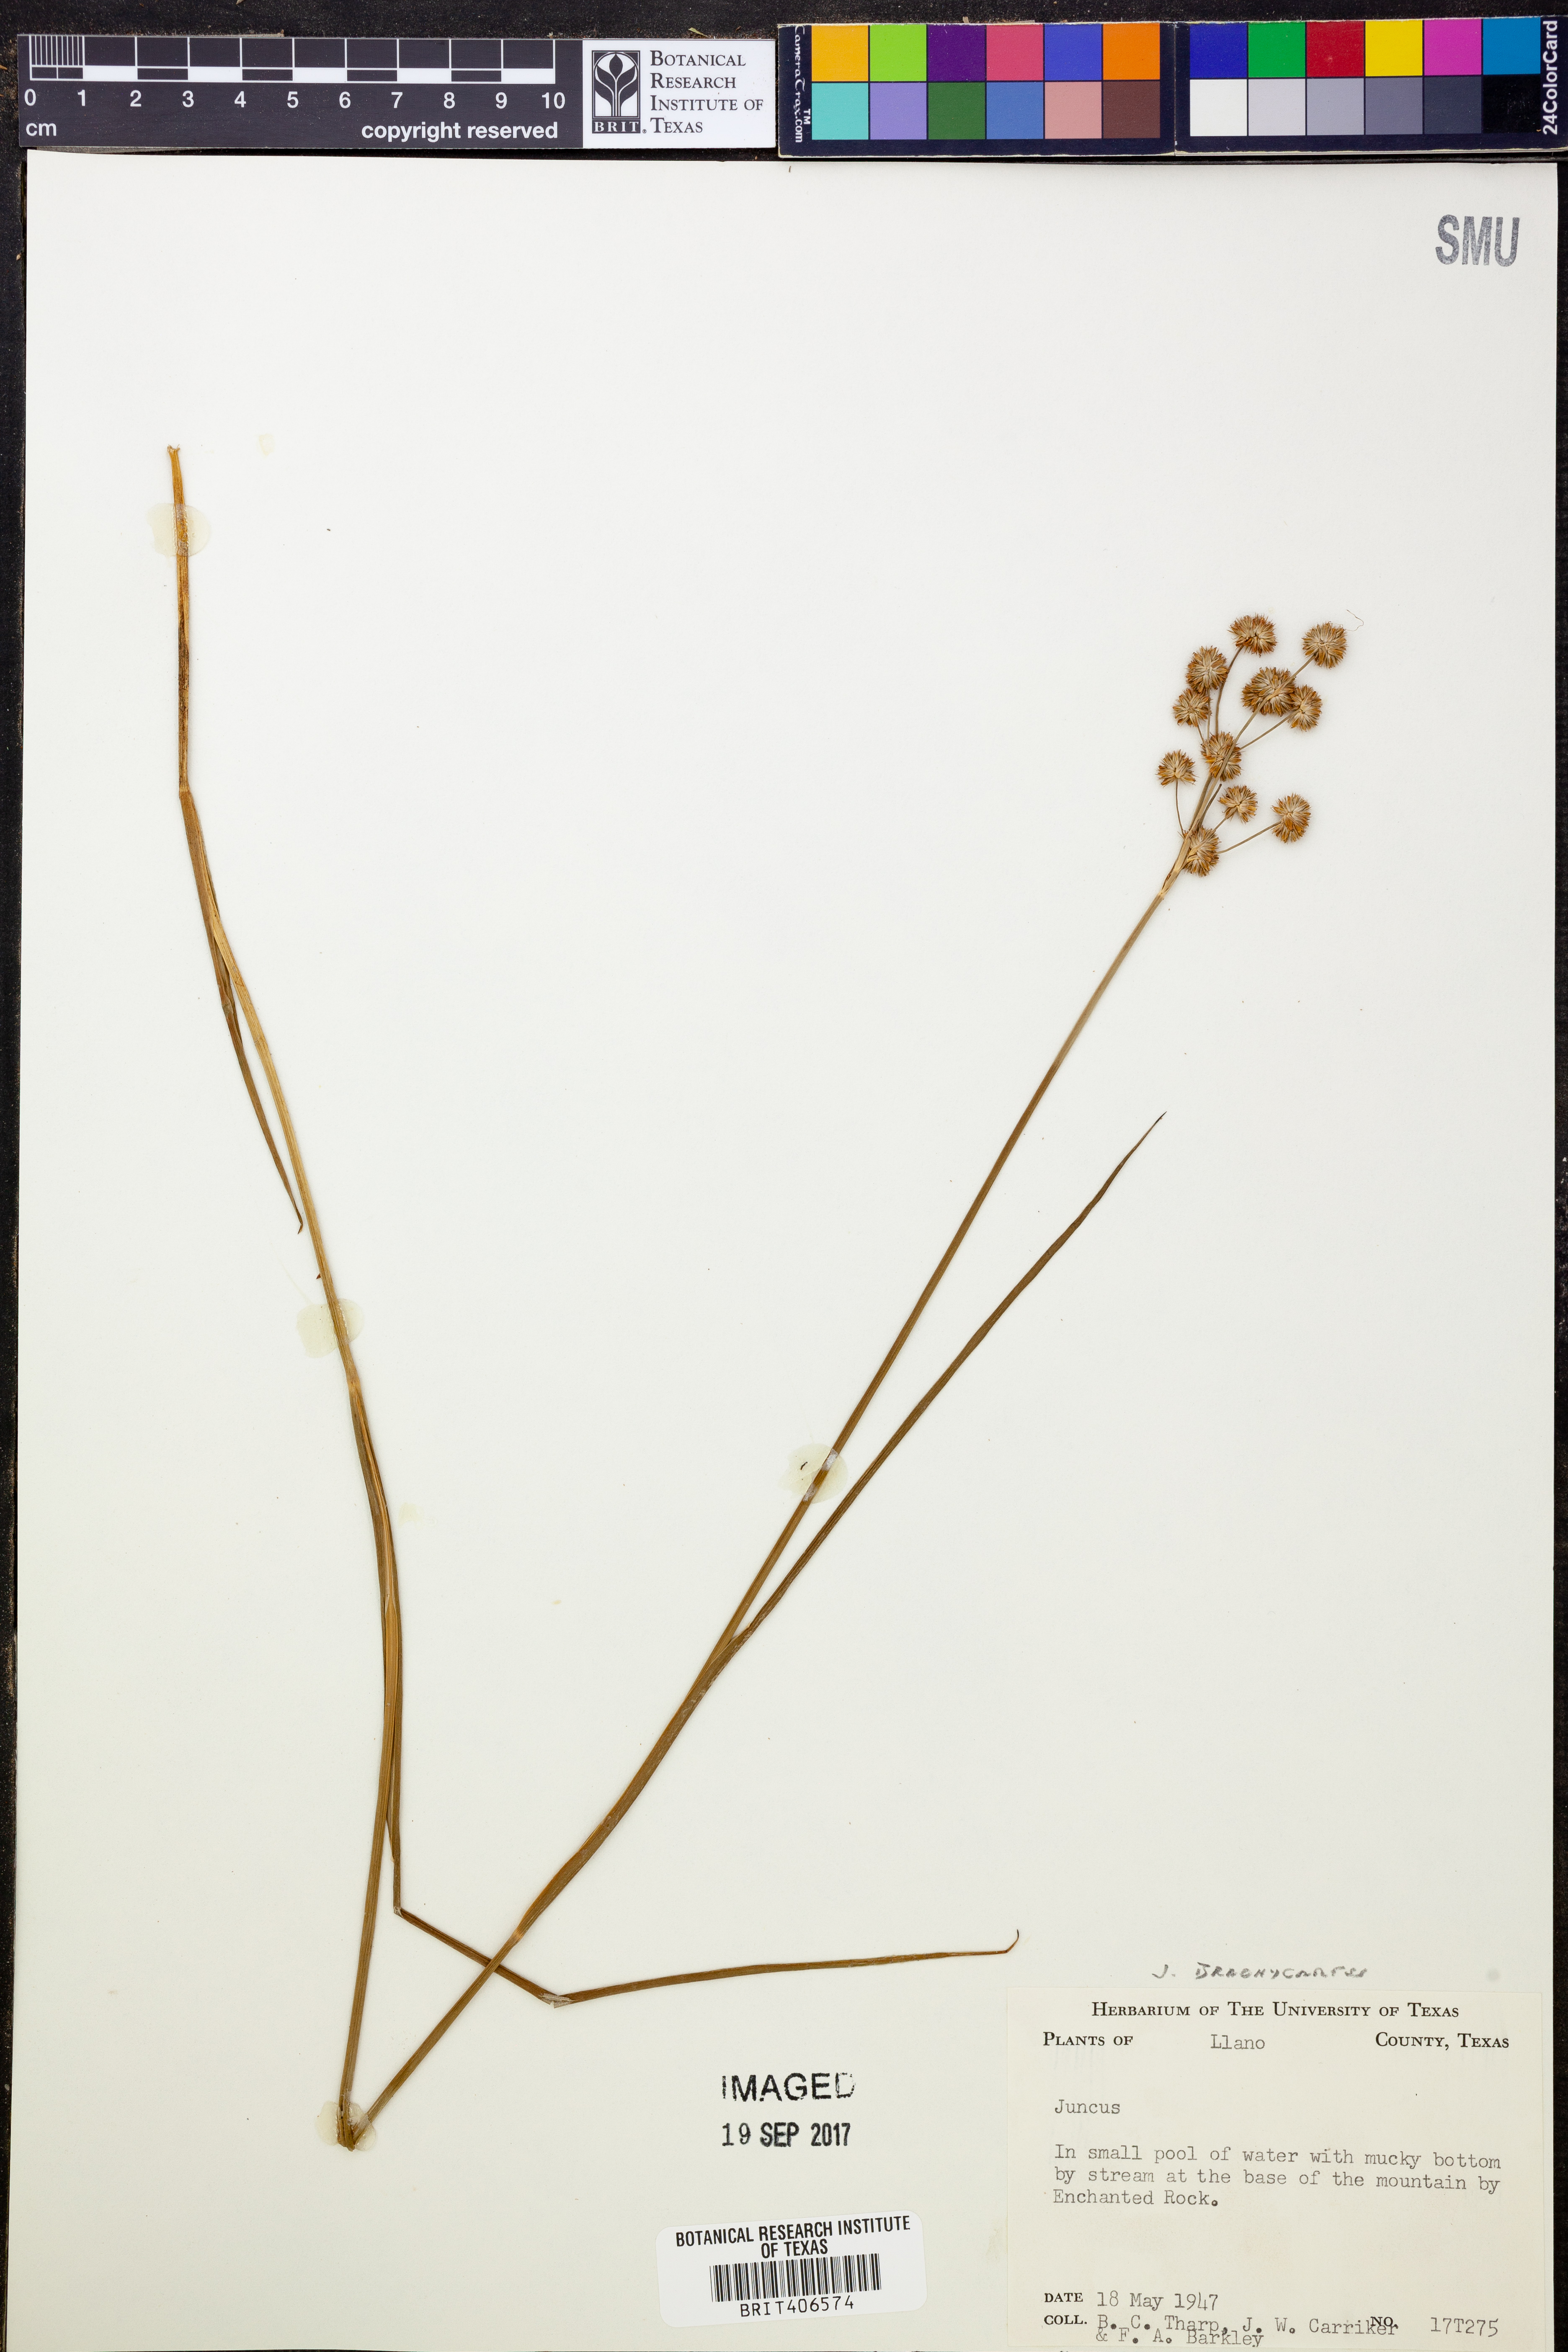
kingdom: Plantae
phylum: Tracheophyta
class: Liliopsida
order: Poales
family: Juncaceae
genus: Juncus
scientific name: Juncus
